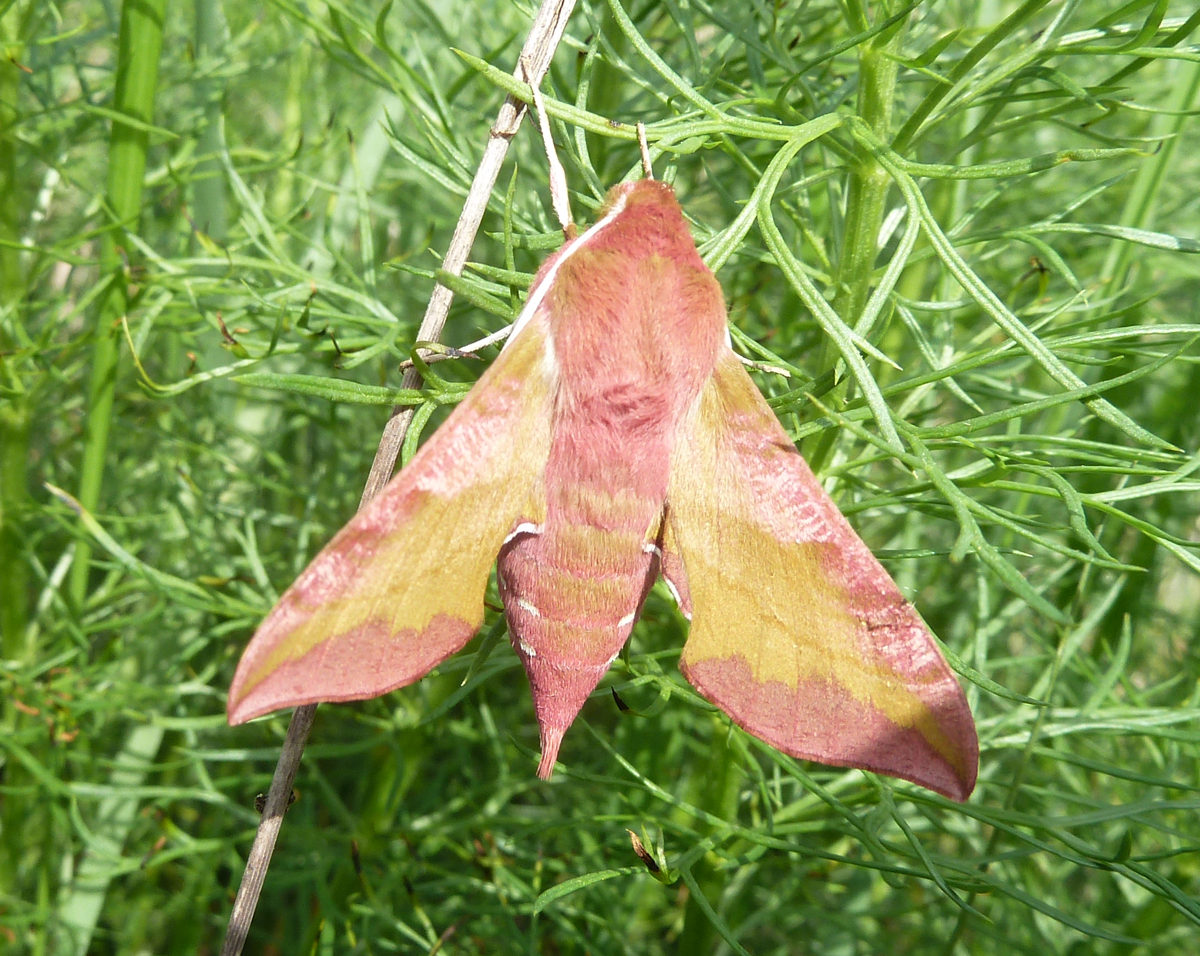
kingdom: Animalia
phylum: Arthropoda
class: Insecta
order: Lepidoptera
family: Sphingidae
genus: Deilephila
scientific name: Deilephila porcellus
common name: Small elephant hawk-moth
